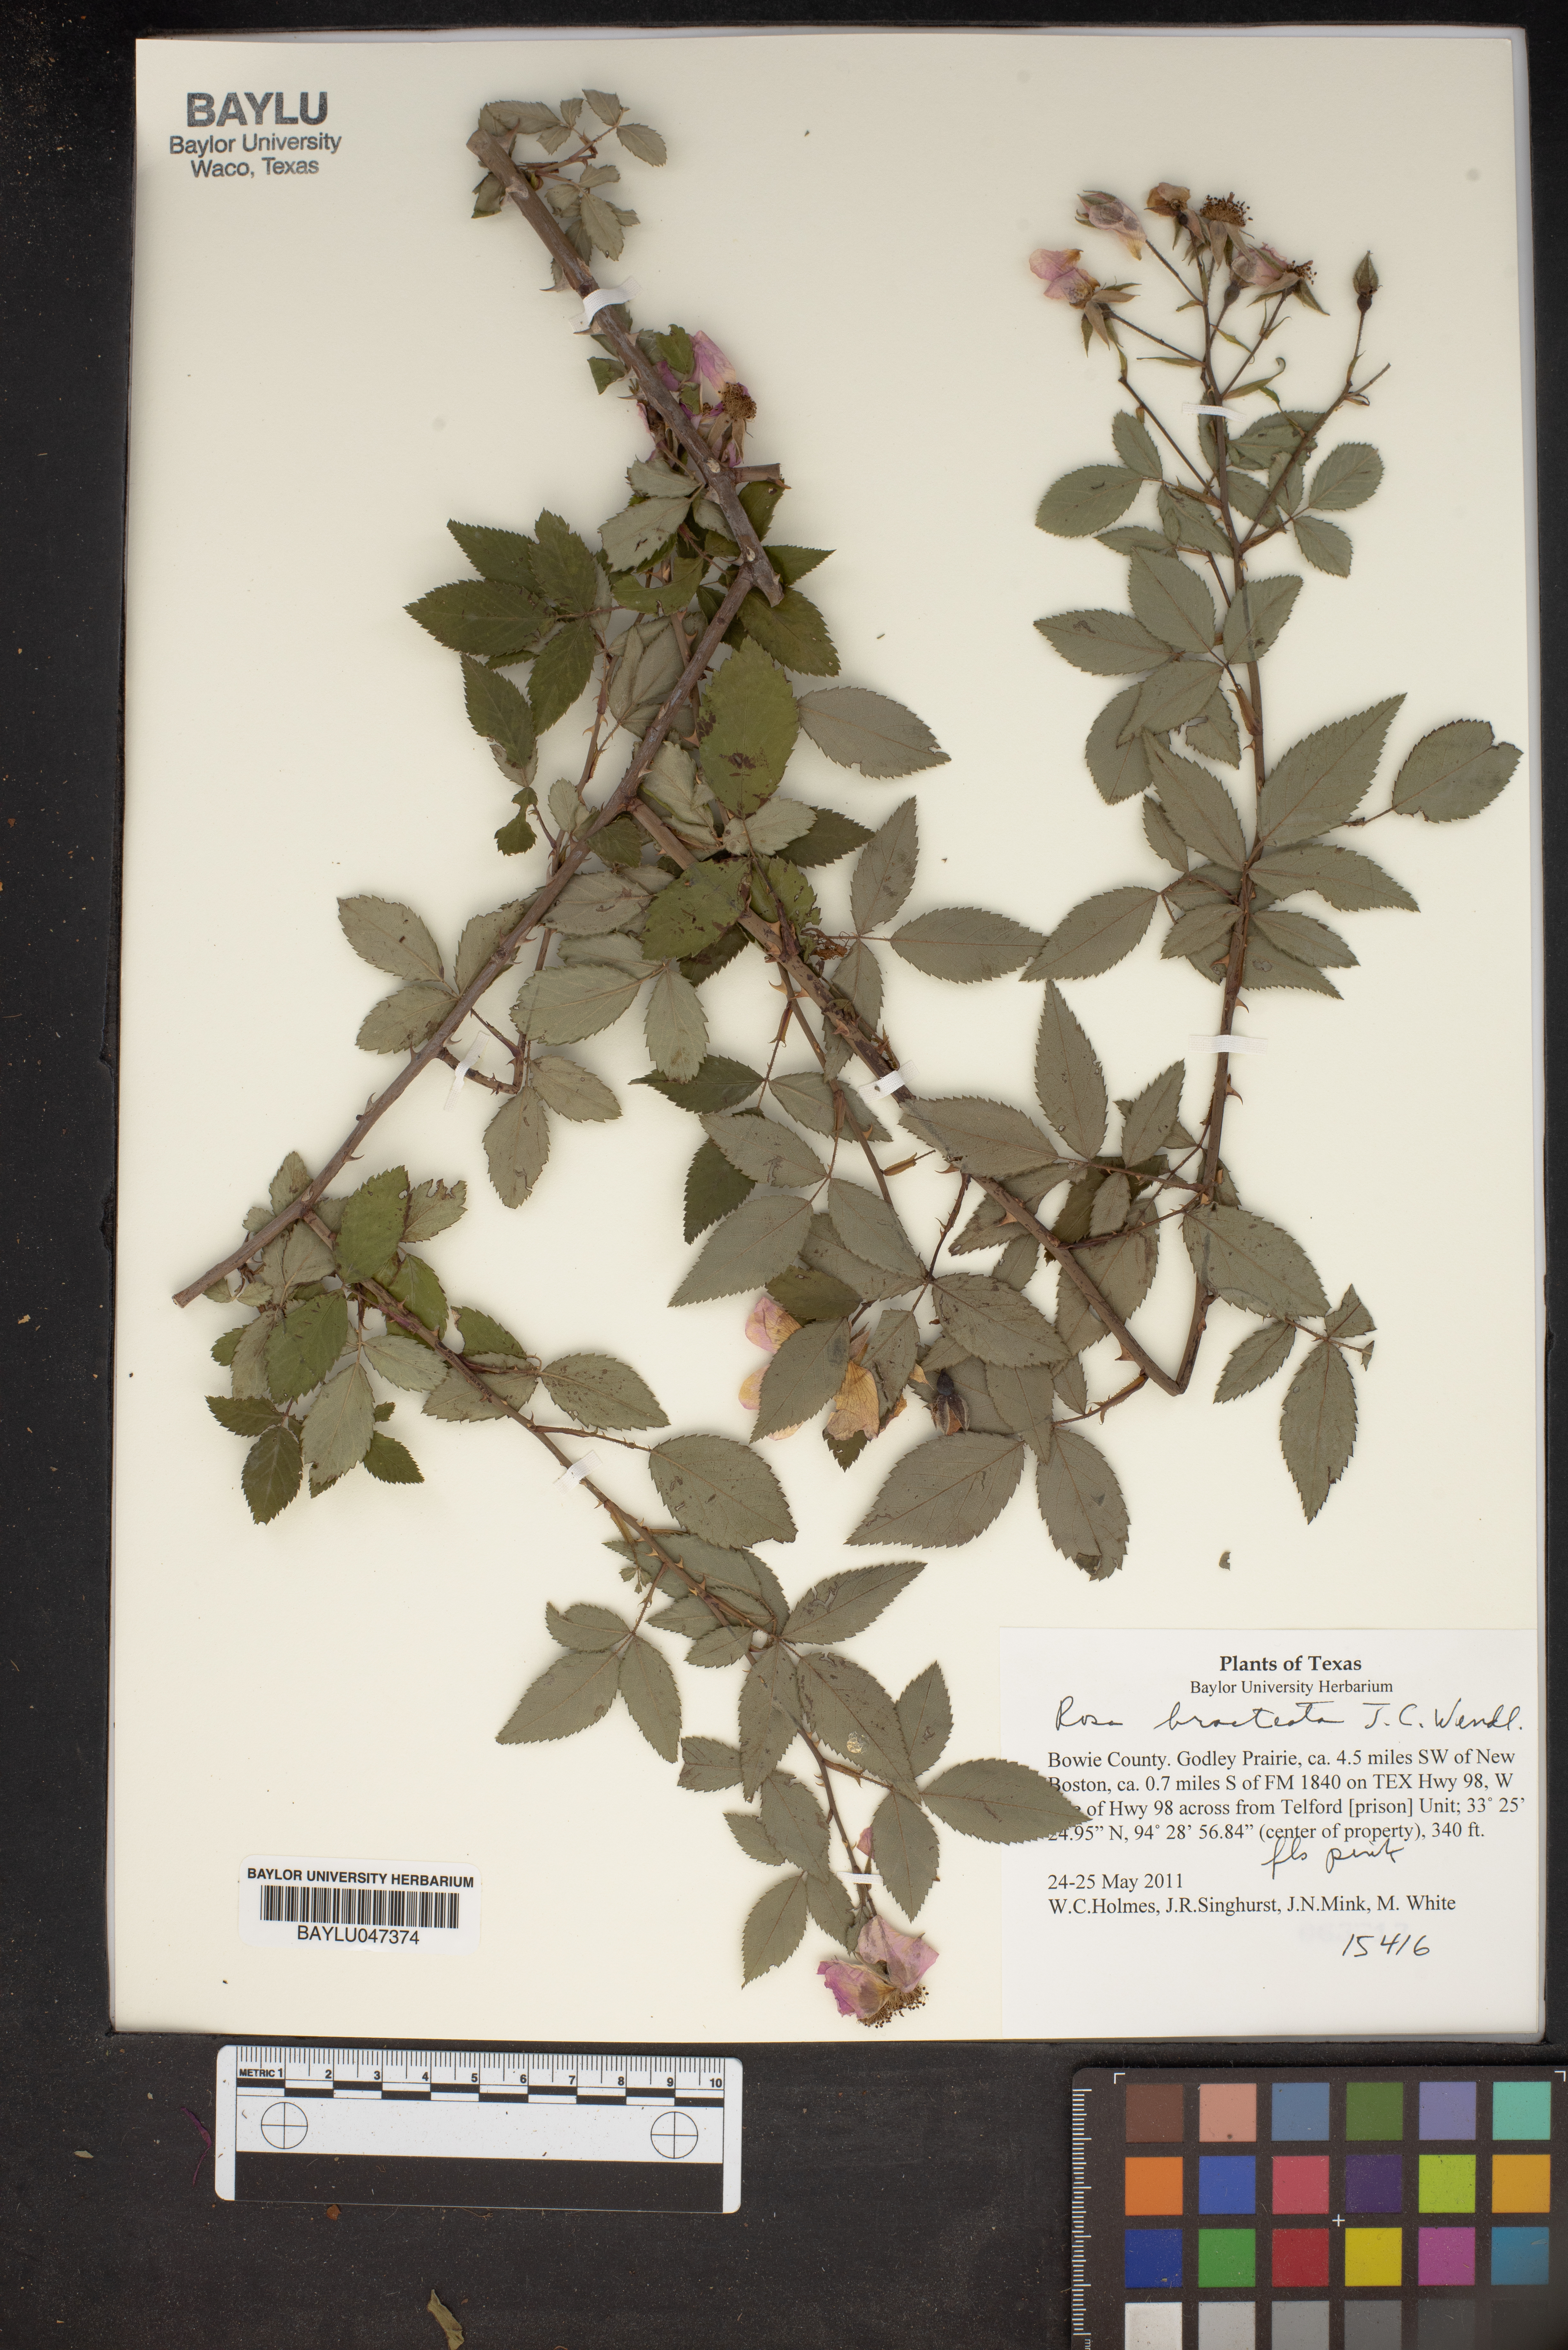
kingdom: Plantae
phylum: Tracheophyta
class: Magnoliopsida
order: Rosales
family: Rosaceae
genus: Rosa
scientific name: Rosa bracteata
